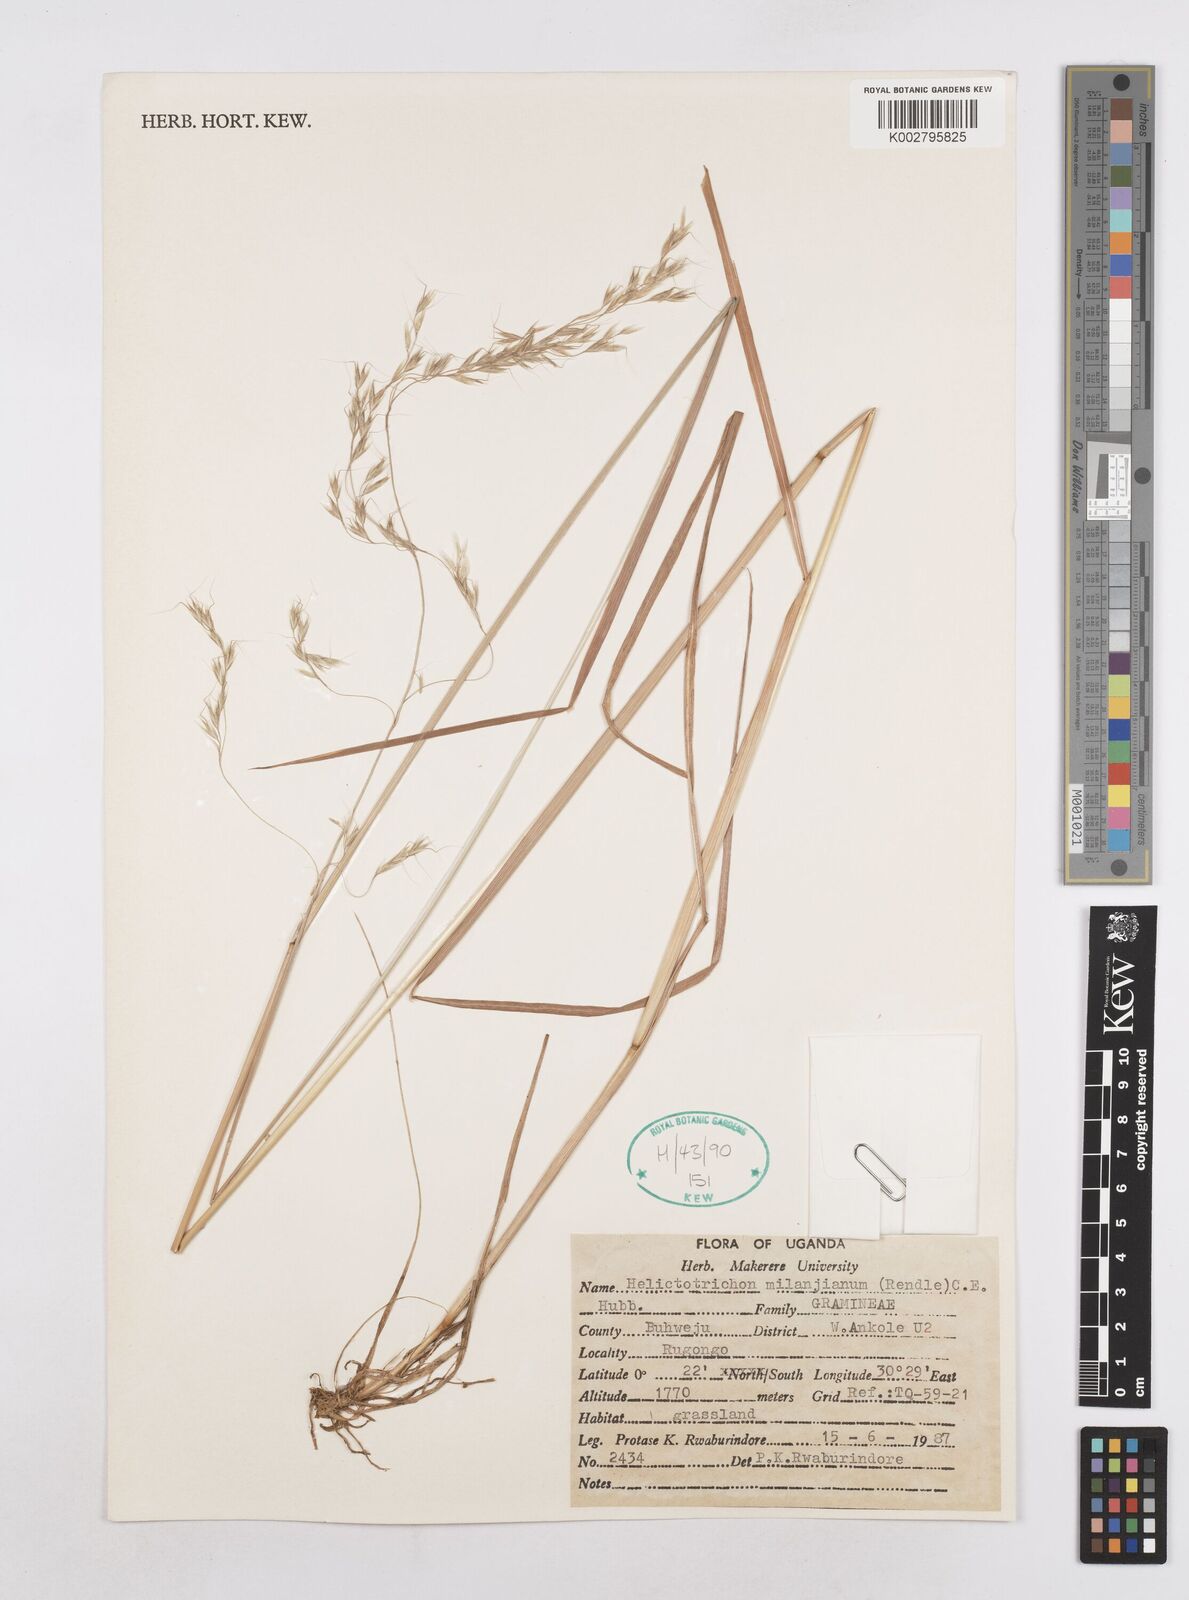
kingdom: Plantae
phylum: Tracheophyta
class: Liliopsida
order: Poales
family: Poaceae
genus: Trisetopsis
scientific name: Trisetopsis milanjiana
